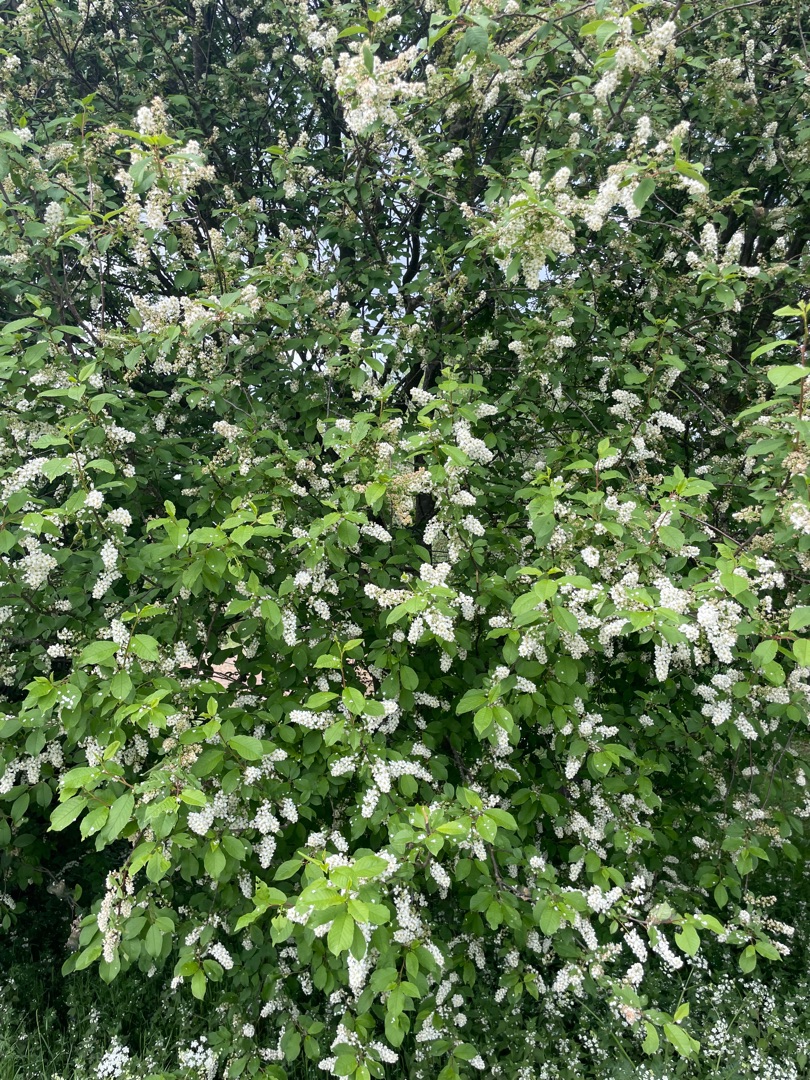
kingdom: Plantae
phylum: Tracheophyta
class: Magnoliopsida
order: Rosales
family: Rosaceae
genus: Prunus
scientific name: Prunus padus
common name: Almindelig hæg
